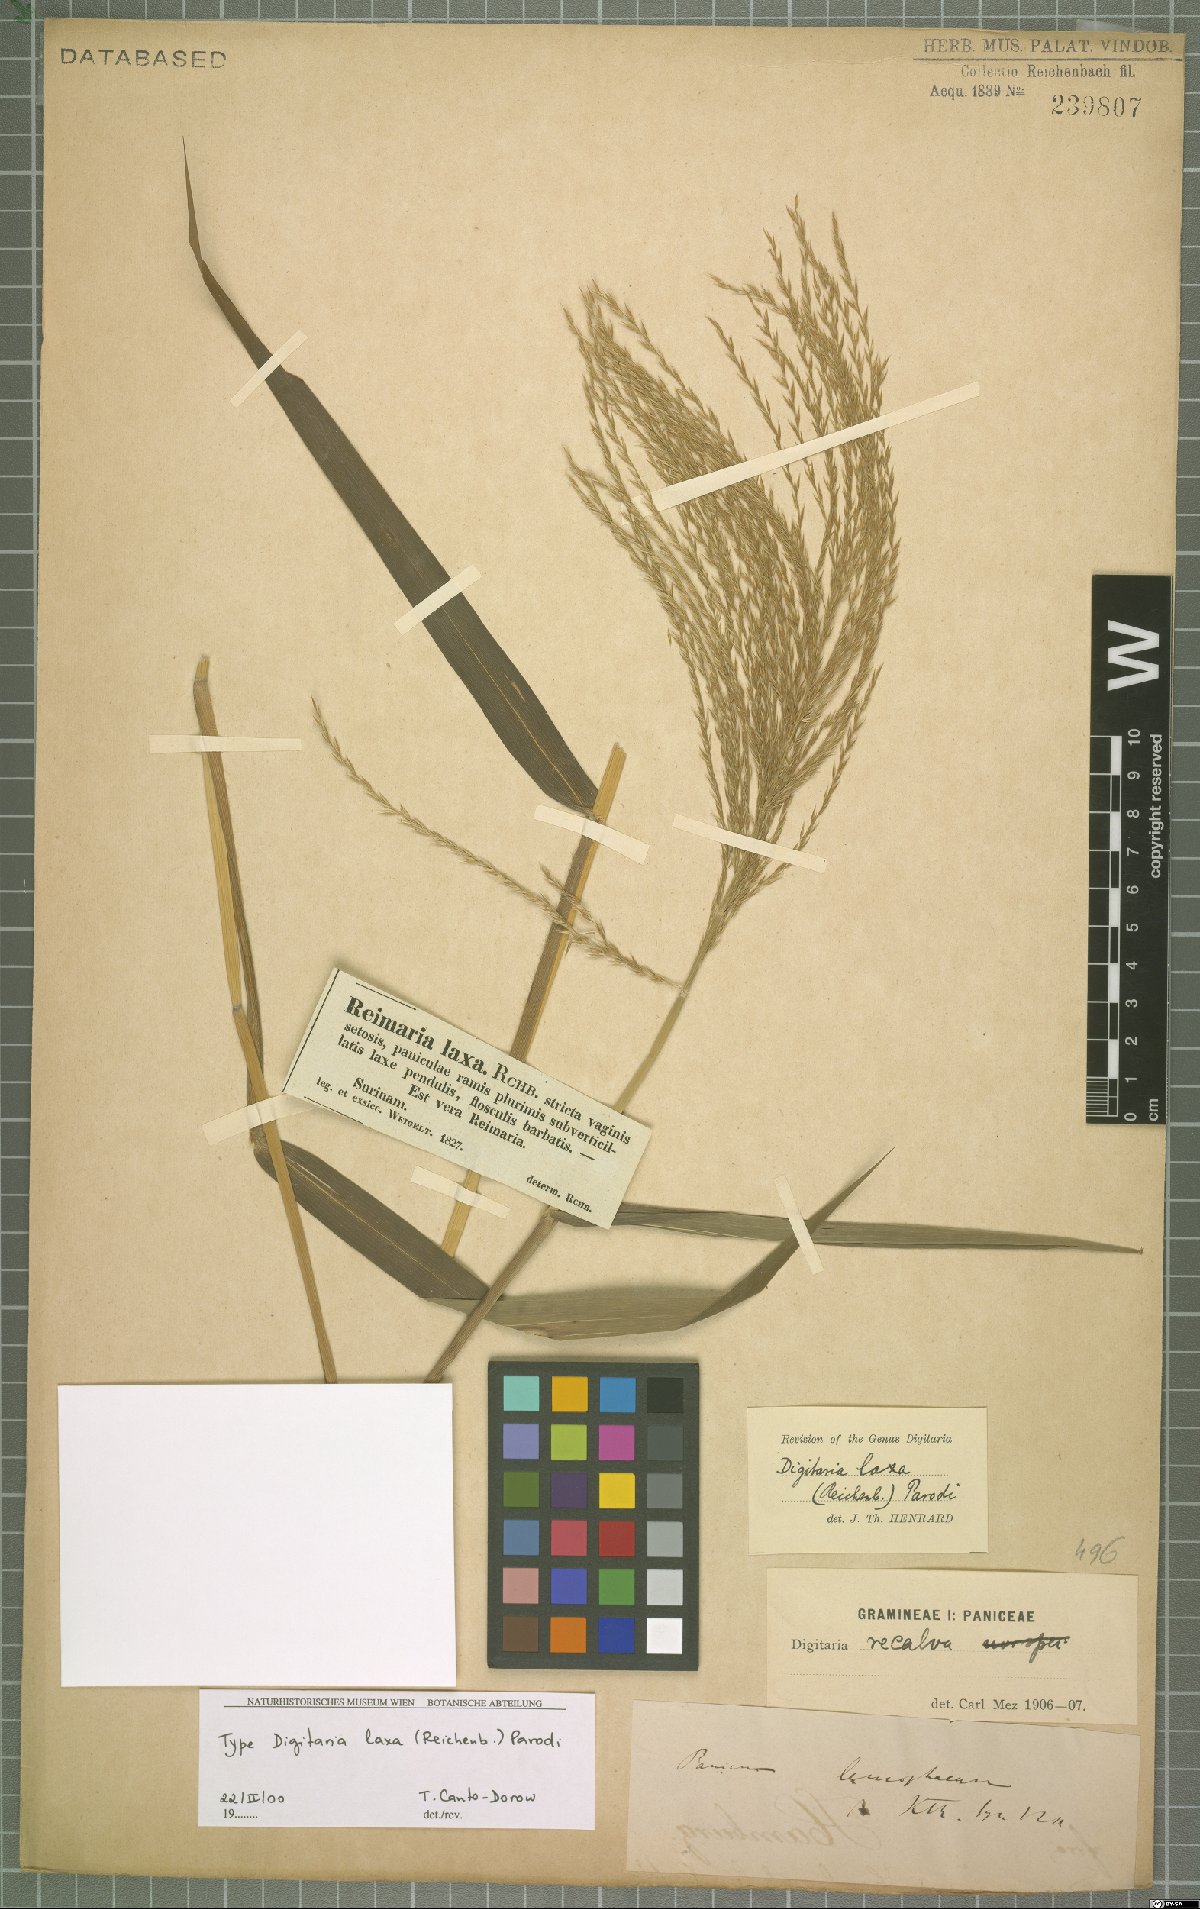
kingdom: Plantae
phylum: Tracheophyta
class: Liliopsida
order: Poales
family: Poaceae
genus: Digitaria
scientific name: Digitaria laxa
